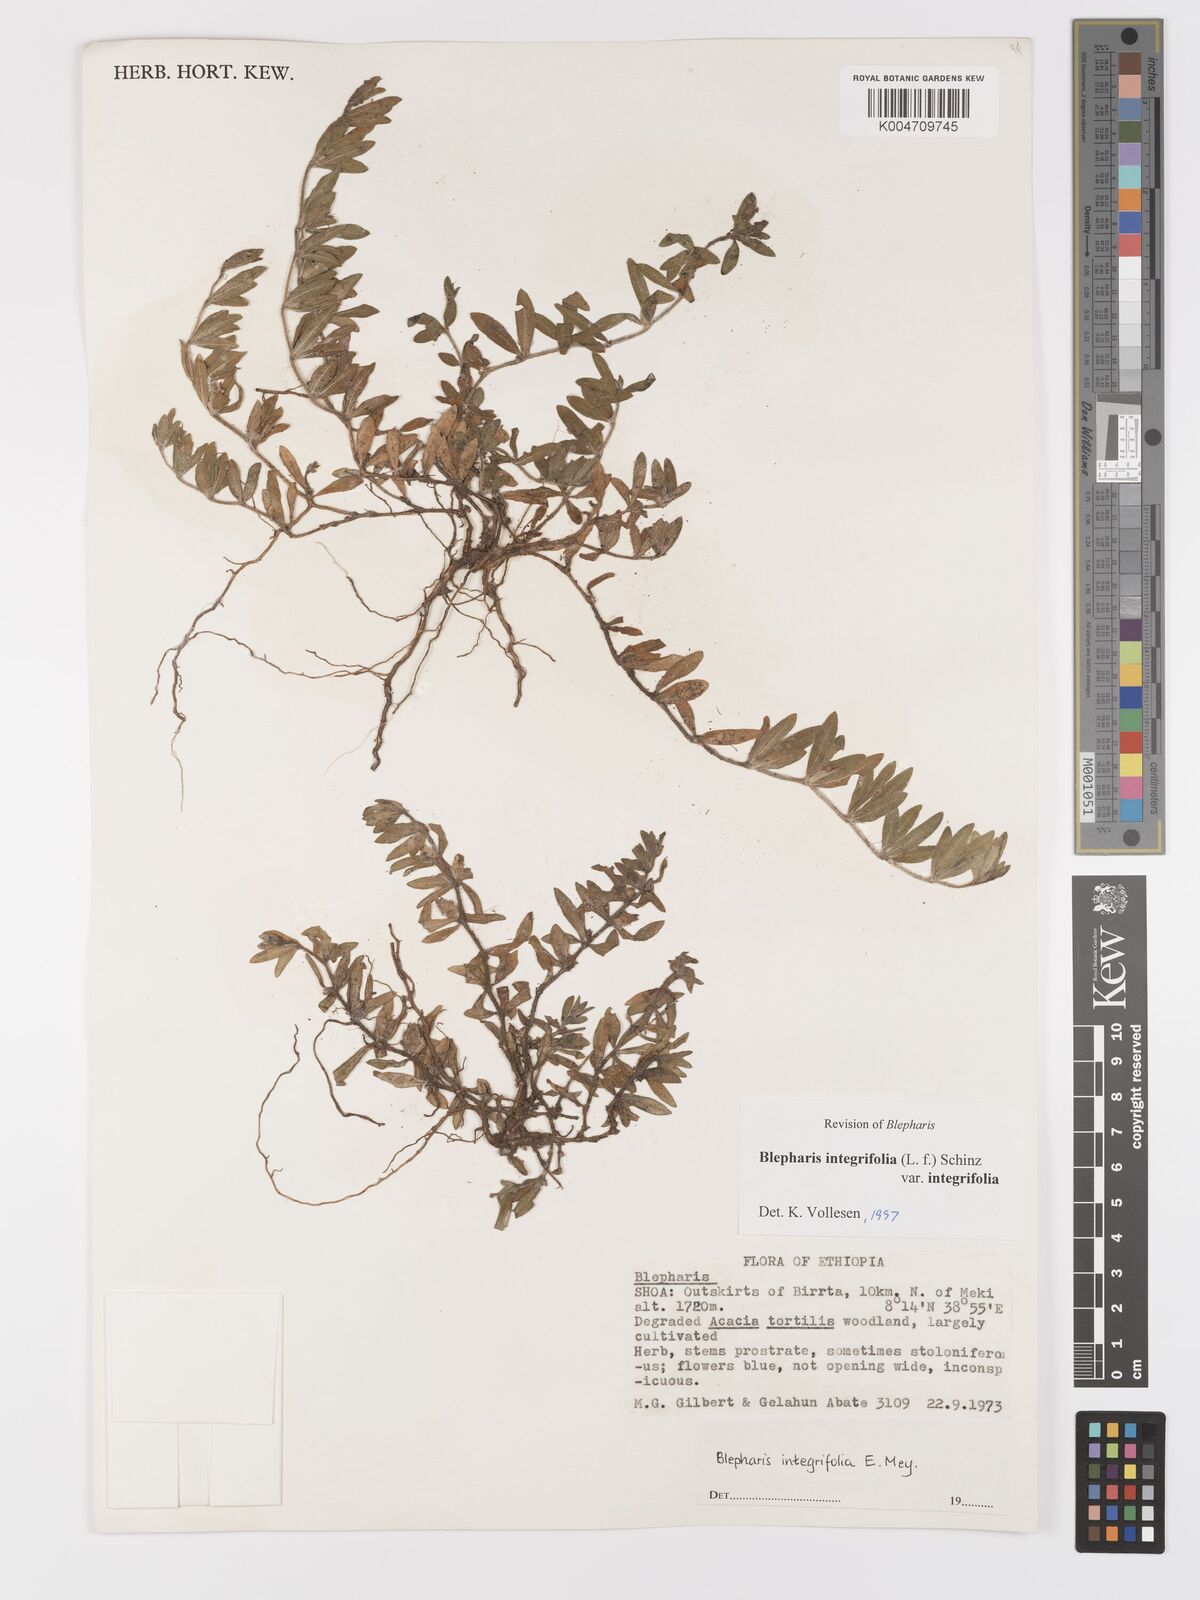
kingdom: Plantae
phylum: Tracheophyta
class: Magnoliopsida
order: Lamiales
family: Acanthaceae
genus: Blepharis
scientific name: Blepharis integrifolia
